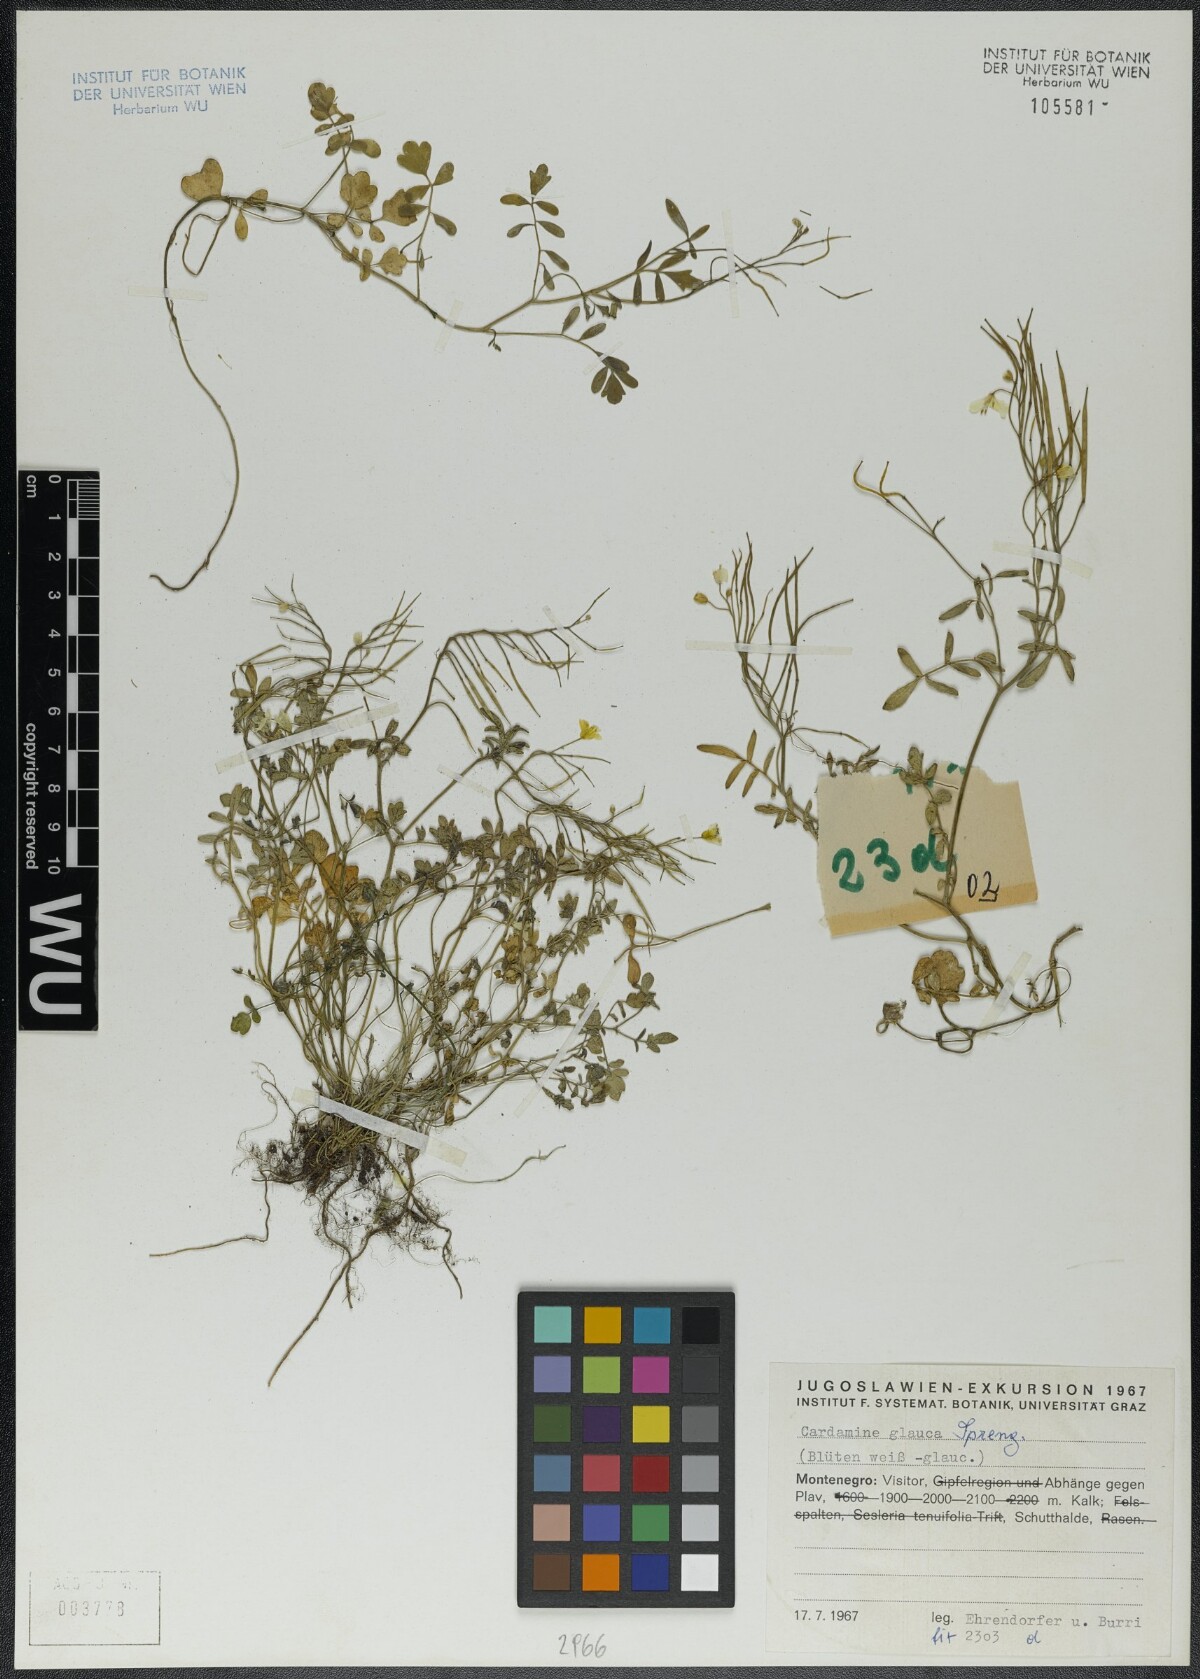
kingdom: Plantae
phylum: Tracheophyta
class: Magnoliopsida
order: Brassicales
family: Brassicaceae
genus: Cardamine
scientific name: Cardamine glauca
